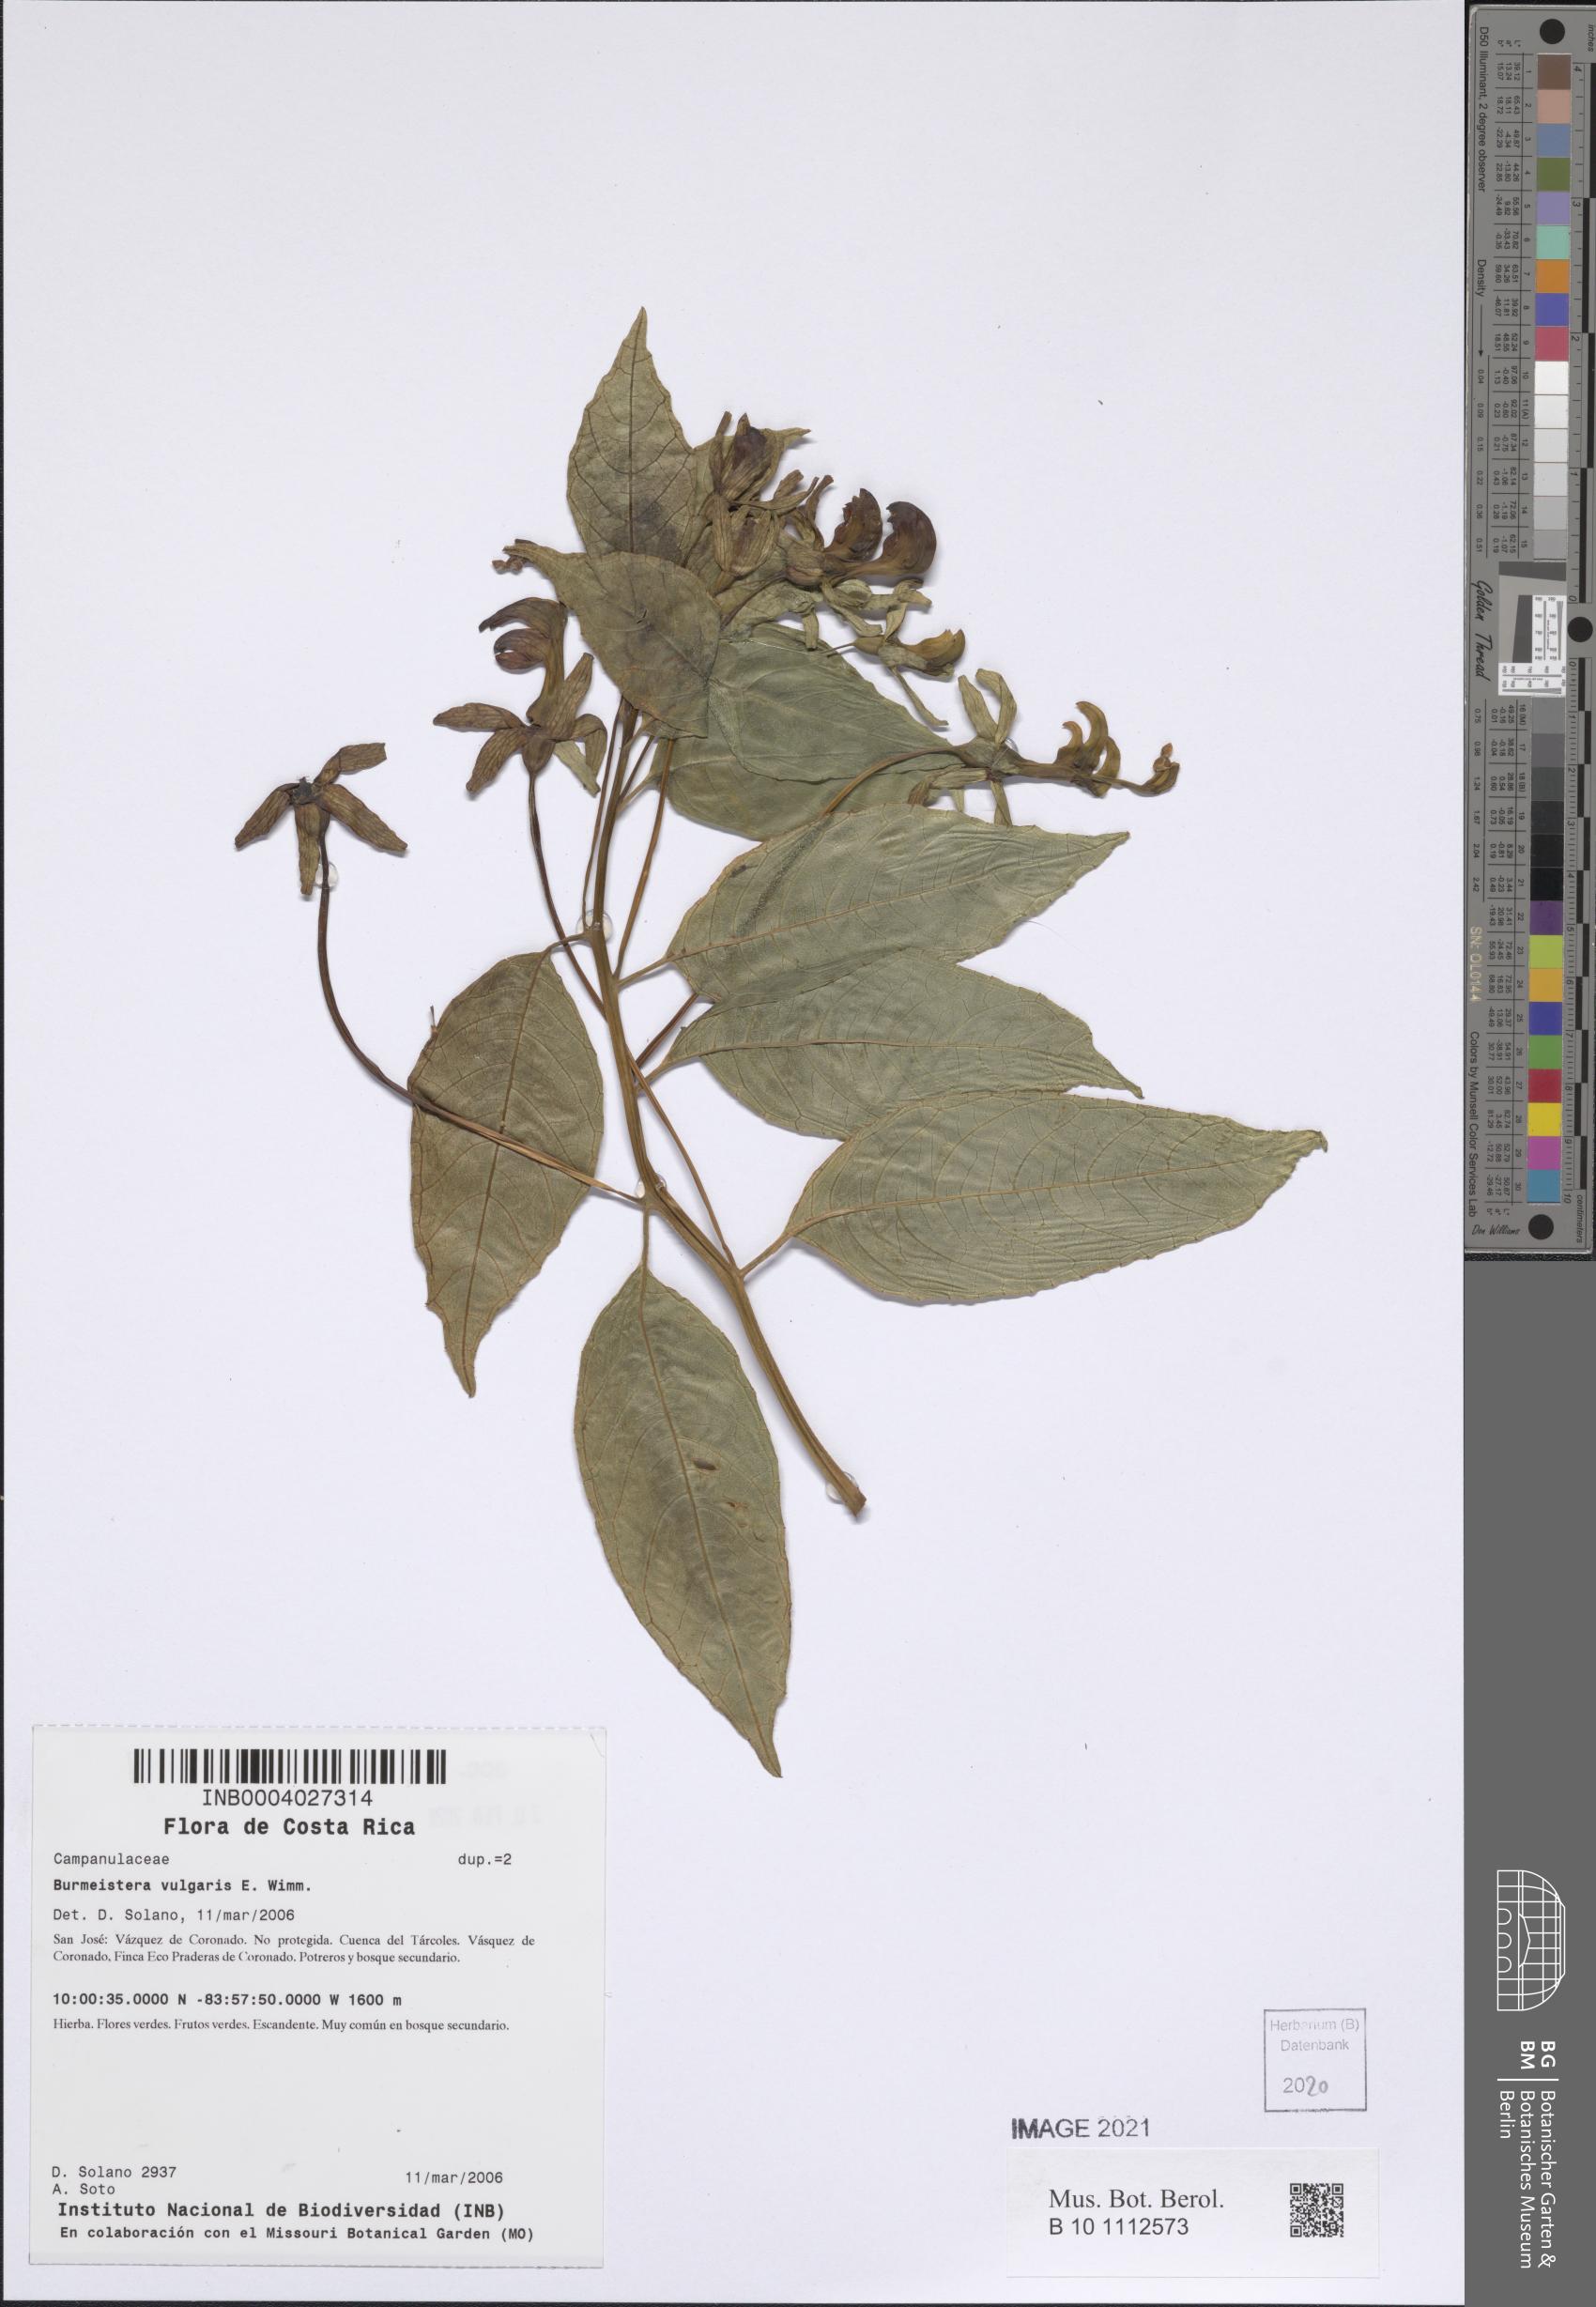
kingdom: Plantae
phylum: Tracheophyta
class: Magnoliopsida
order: Asterales
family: Campanulaceae
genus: Burmeistera
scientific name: Burmeistera vulgaris
